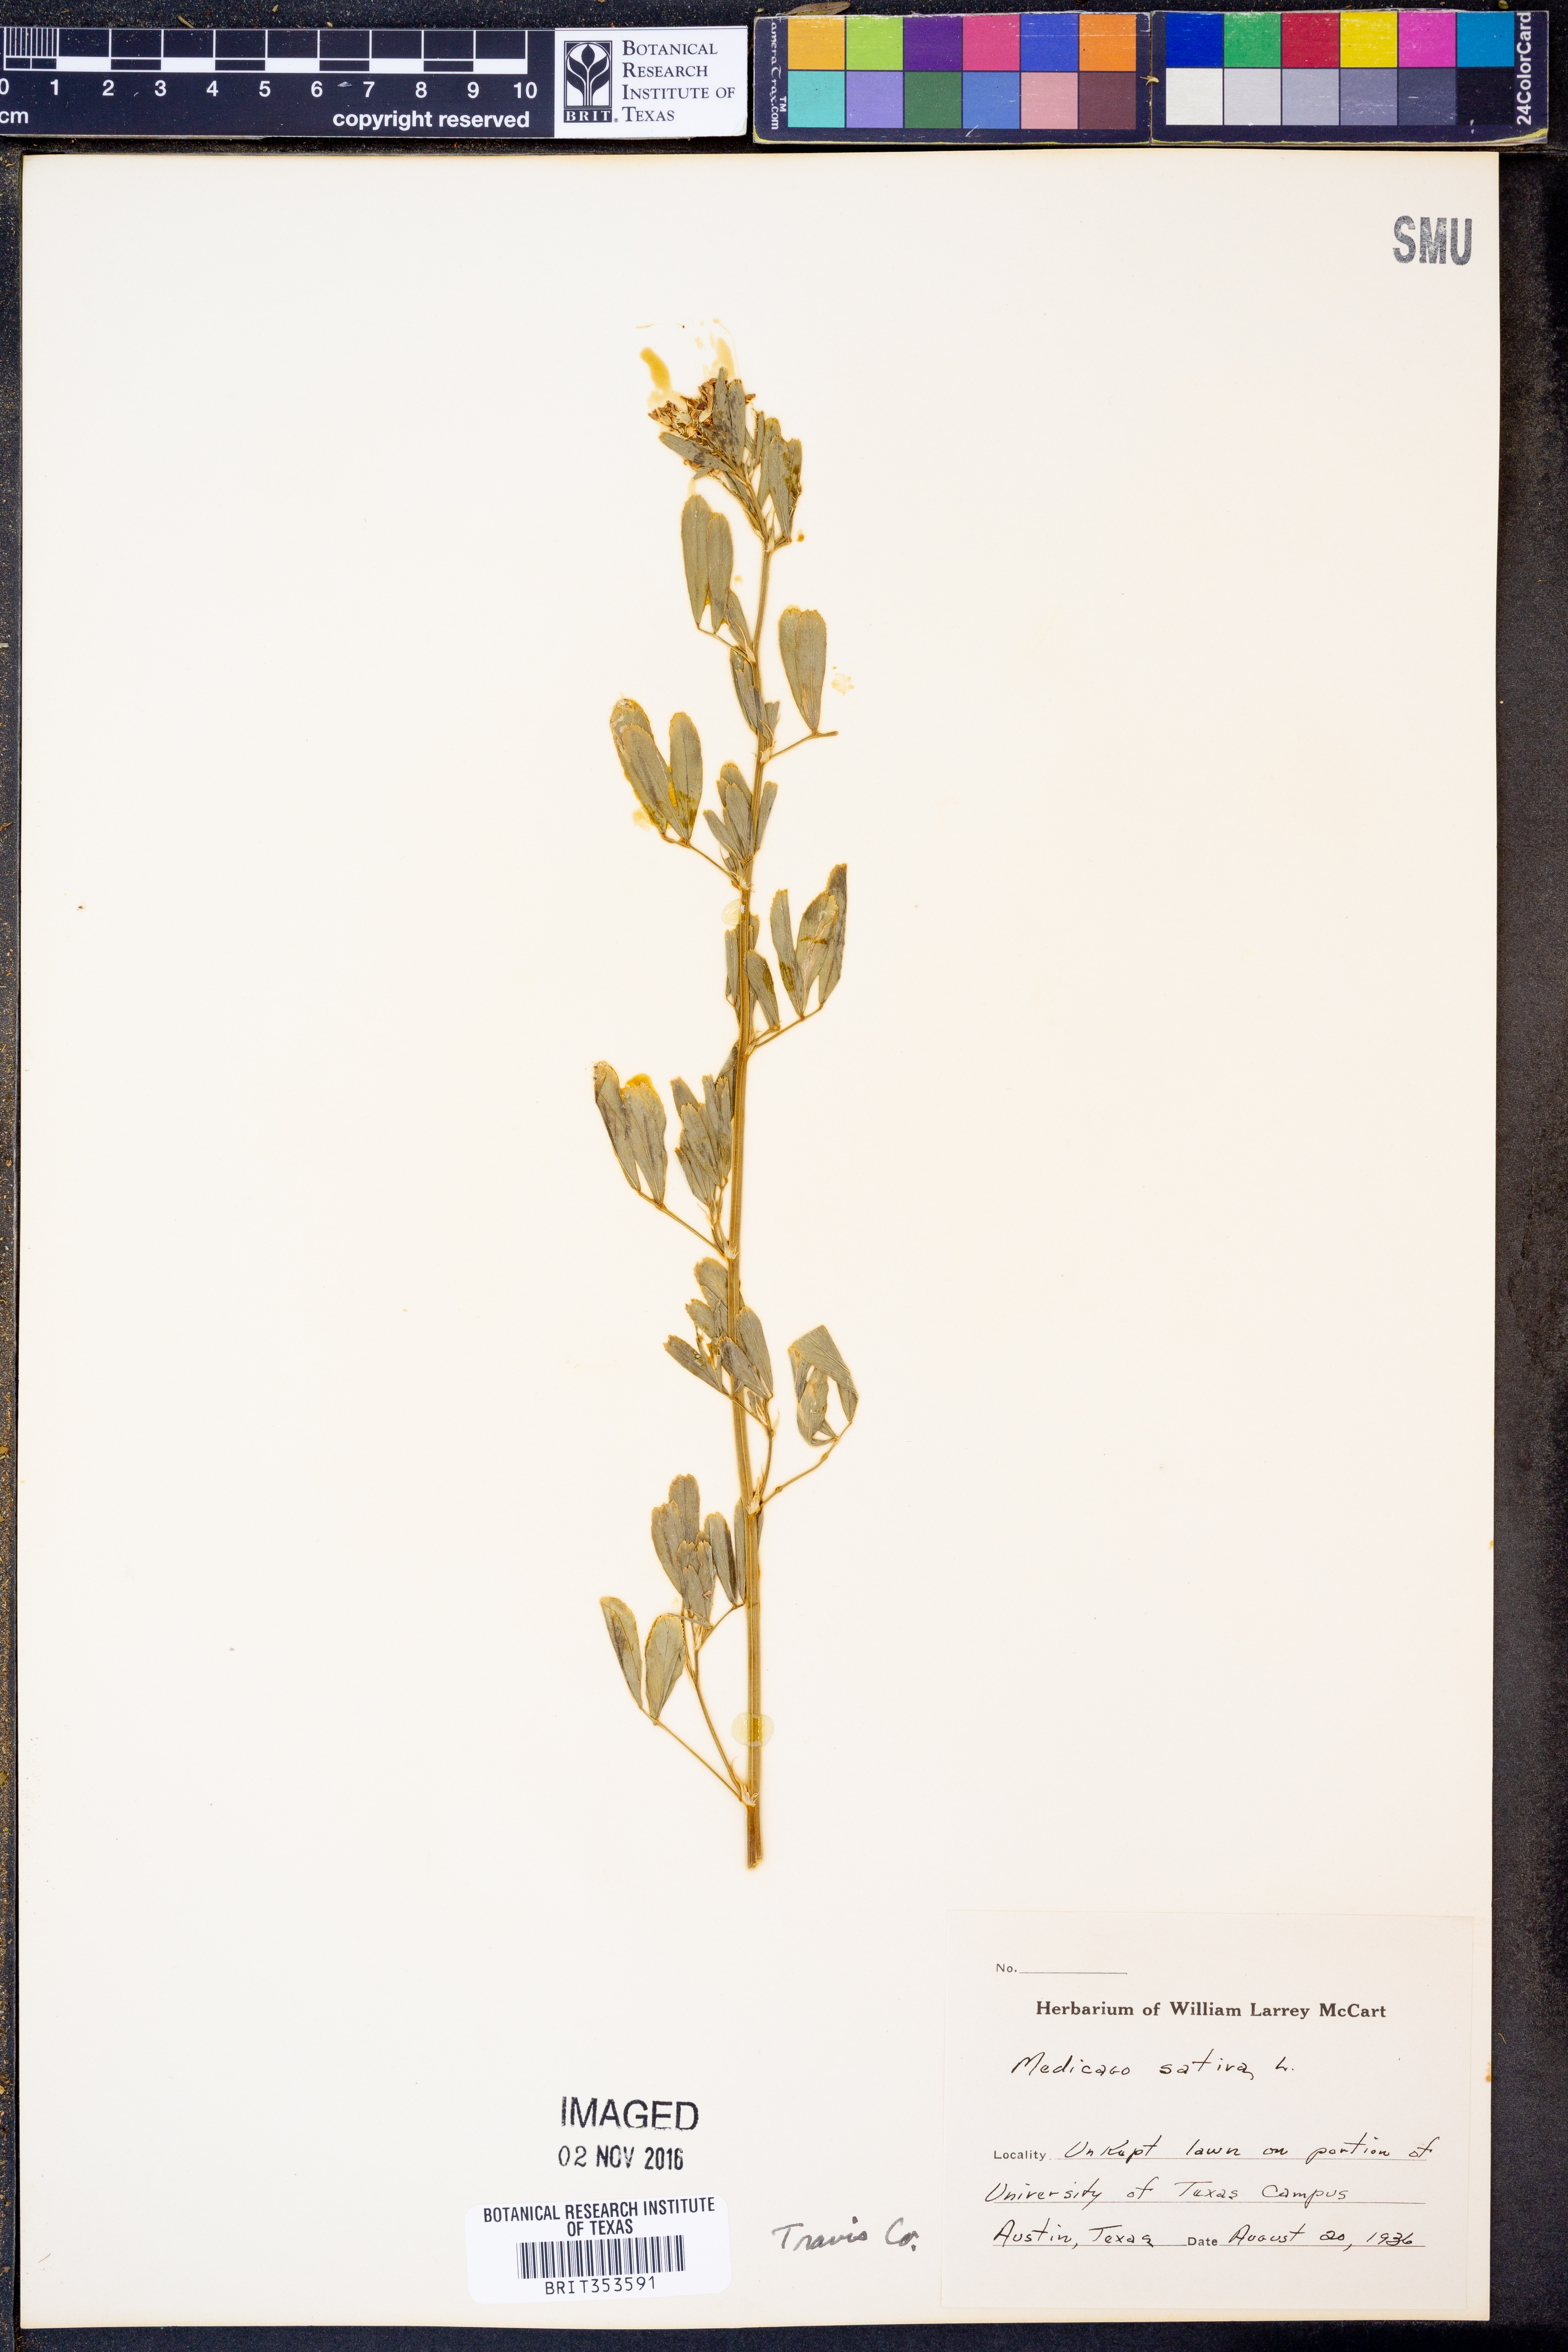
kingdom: Plantae
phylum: Tracheophyta
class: Magnoliopsida
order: Fabales
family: Fabaceae
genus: Medicago
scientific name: Medicago sativa
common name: Alfalfa
